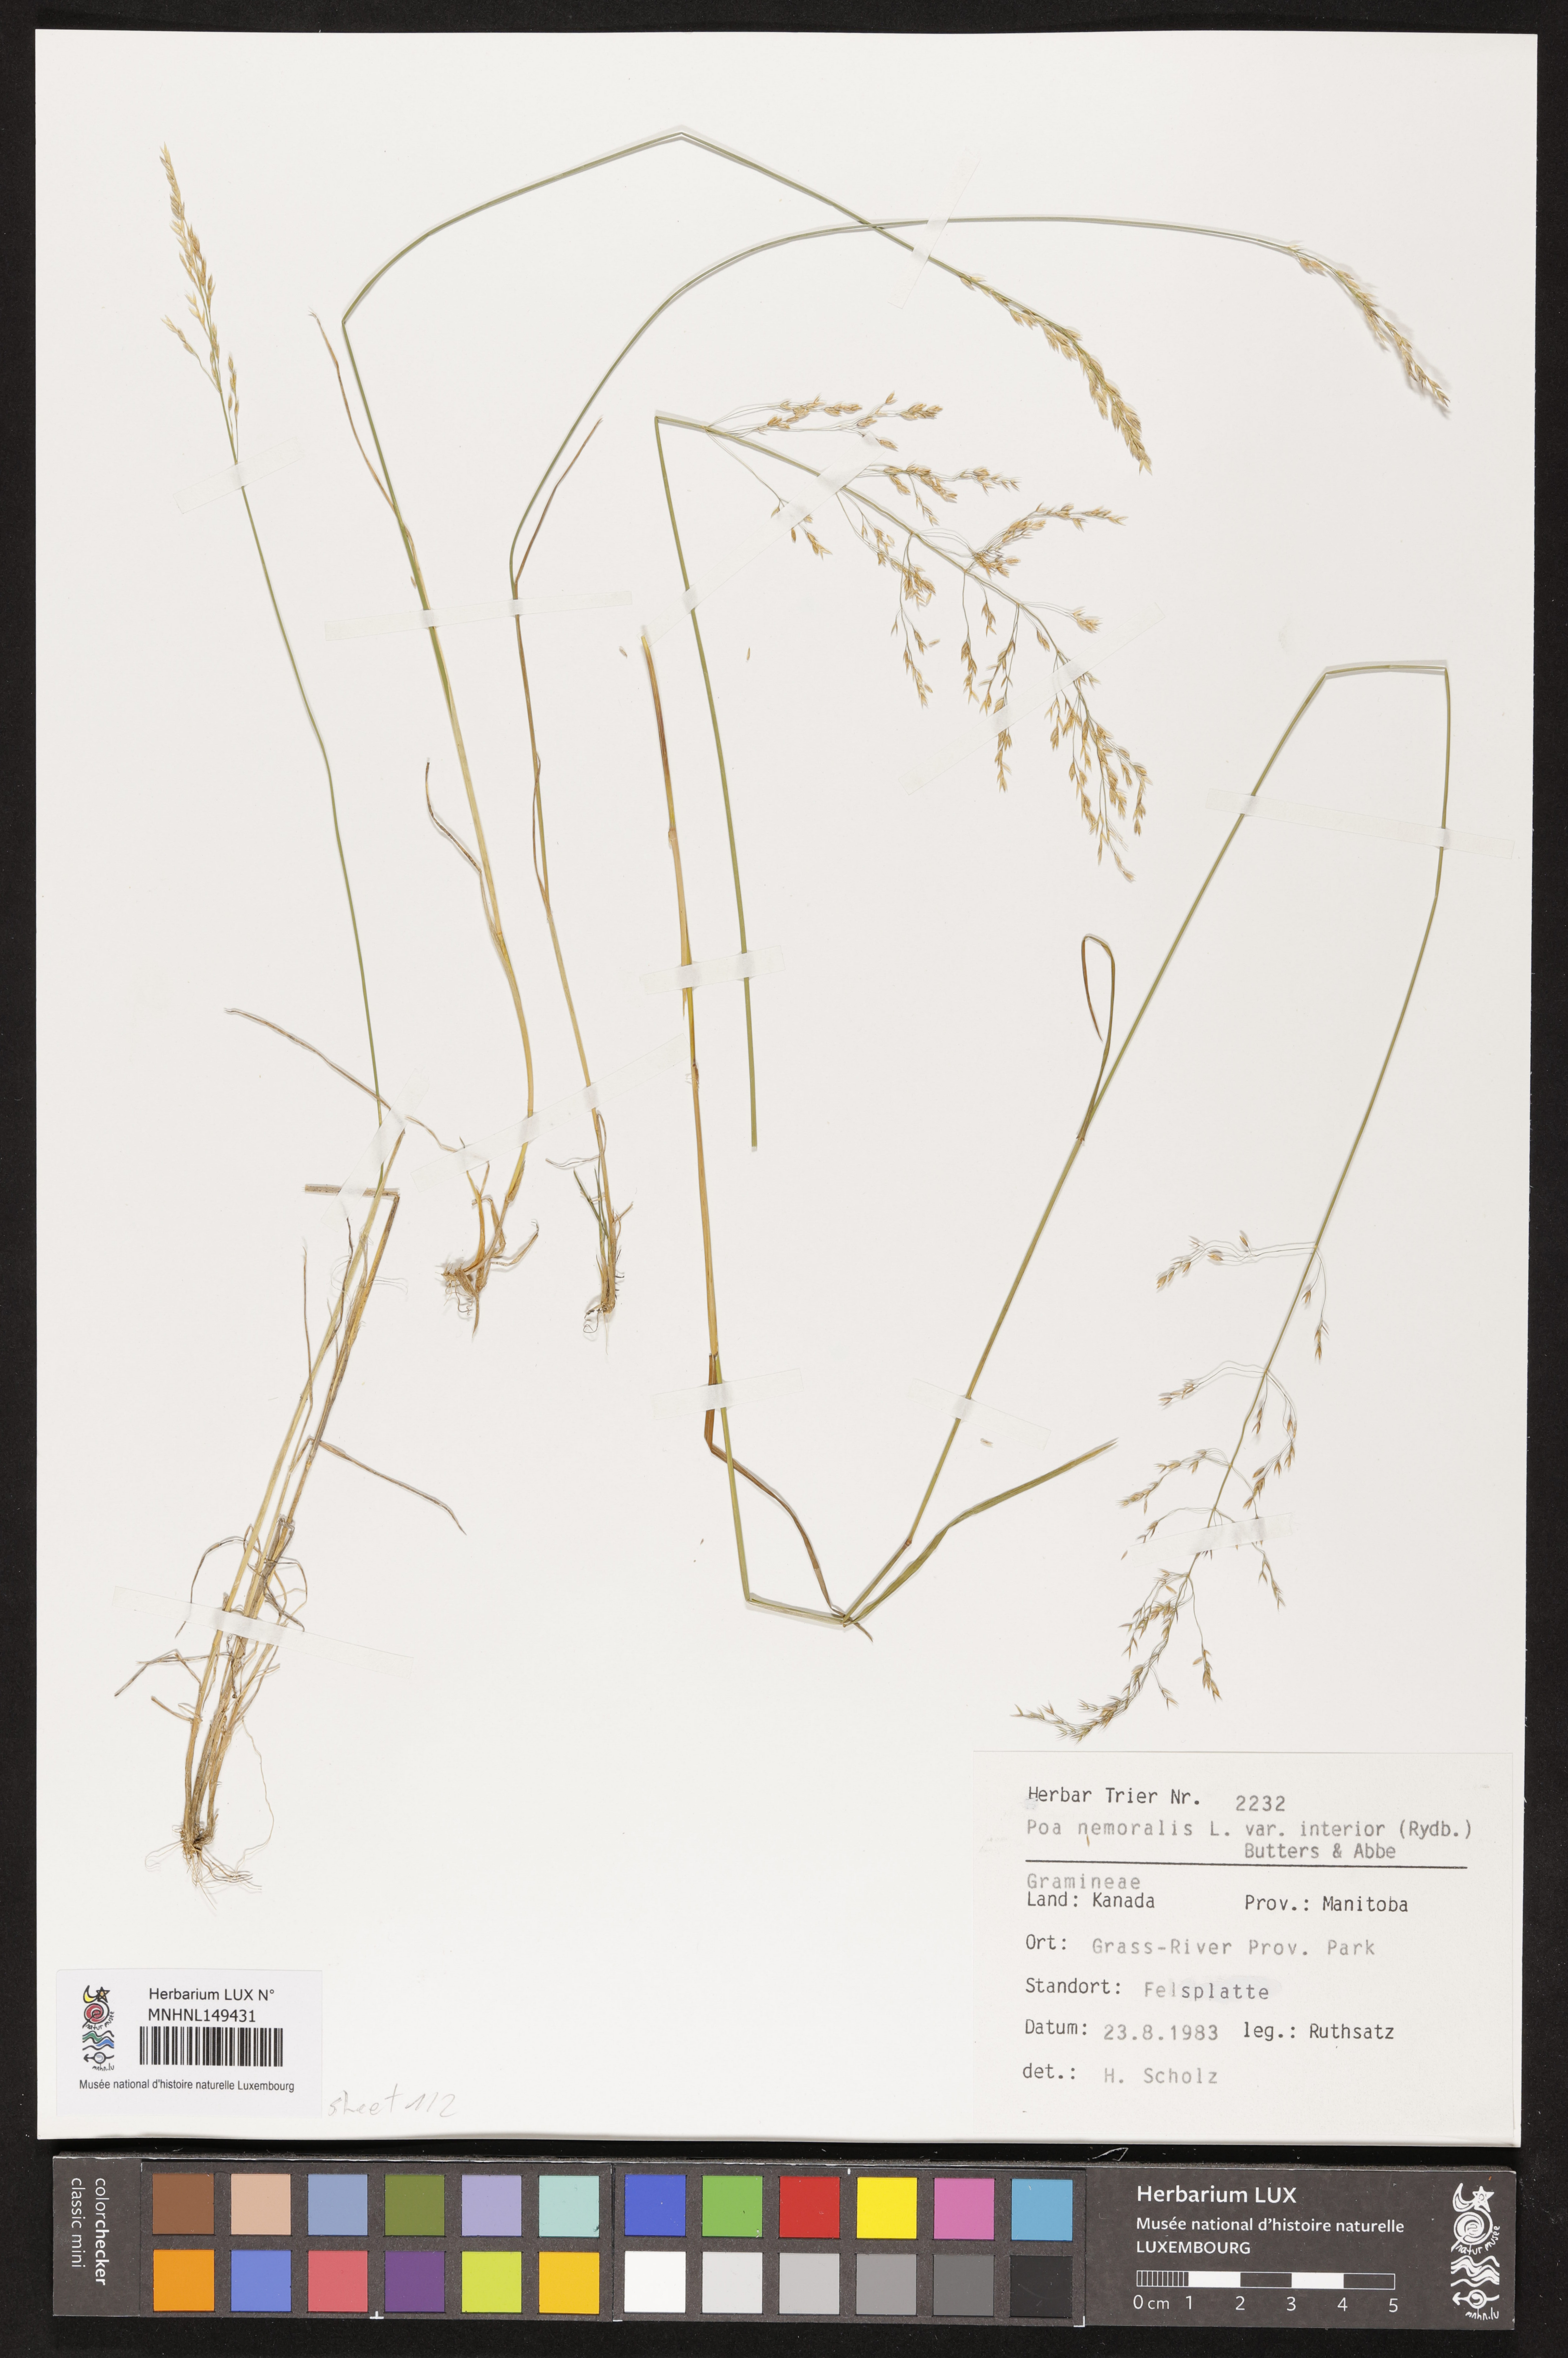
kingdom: Plantae
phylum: Tracheophyta
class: Liliopsida
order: Poales
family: Poaceae
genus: Poa
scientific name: Poa interior
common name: Inland bluegrass
